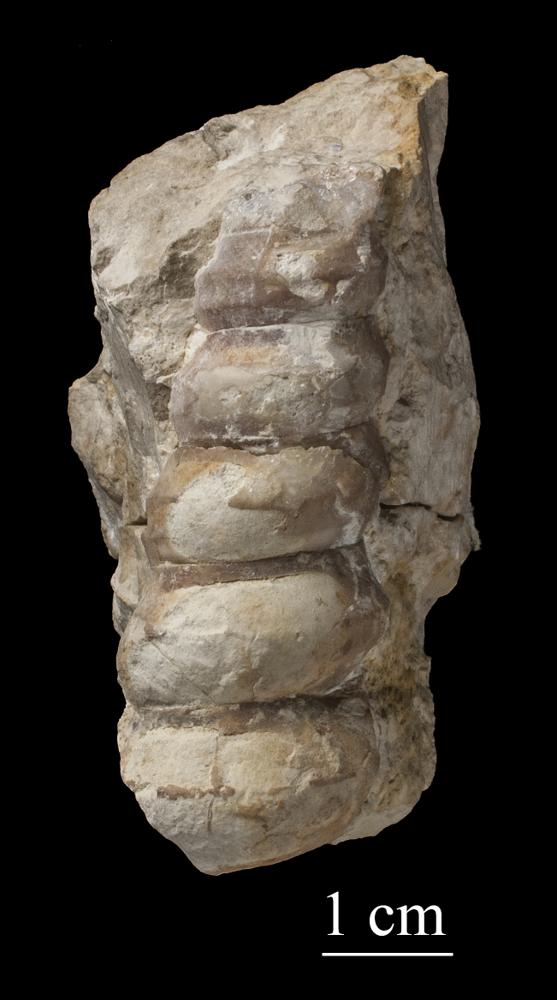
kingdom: Animalia
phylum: Mollusca
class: Gastropoda
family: Lophospiridae
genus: Ectomaria
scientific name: Ectomaria Murchisonia nieszkowskii
